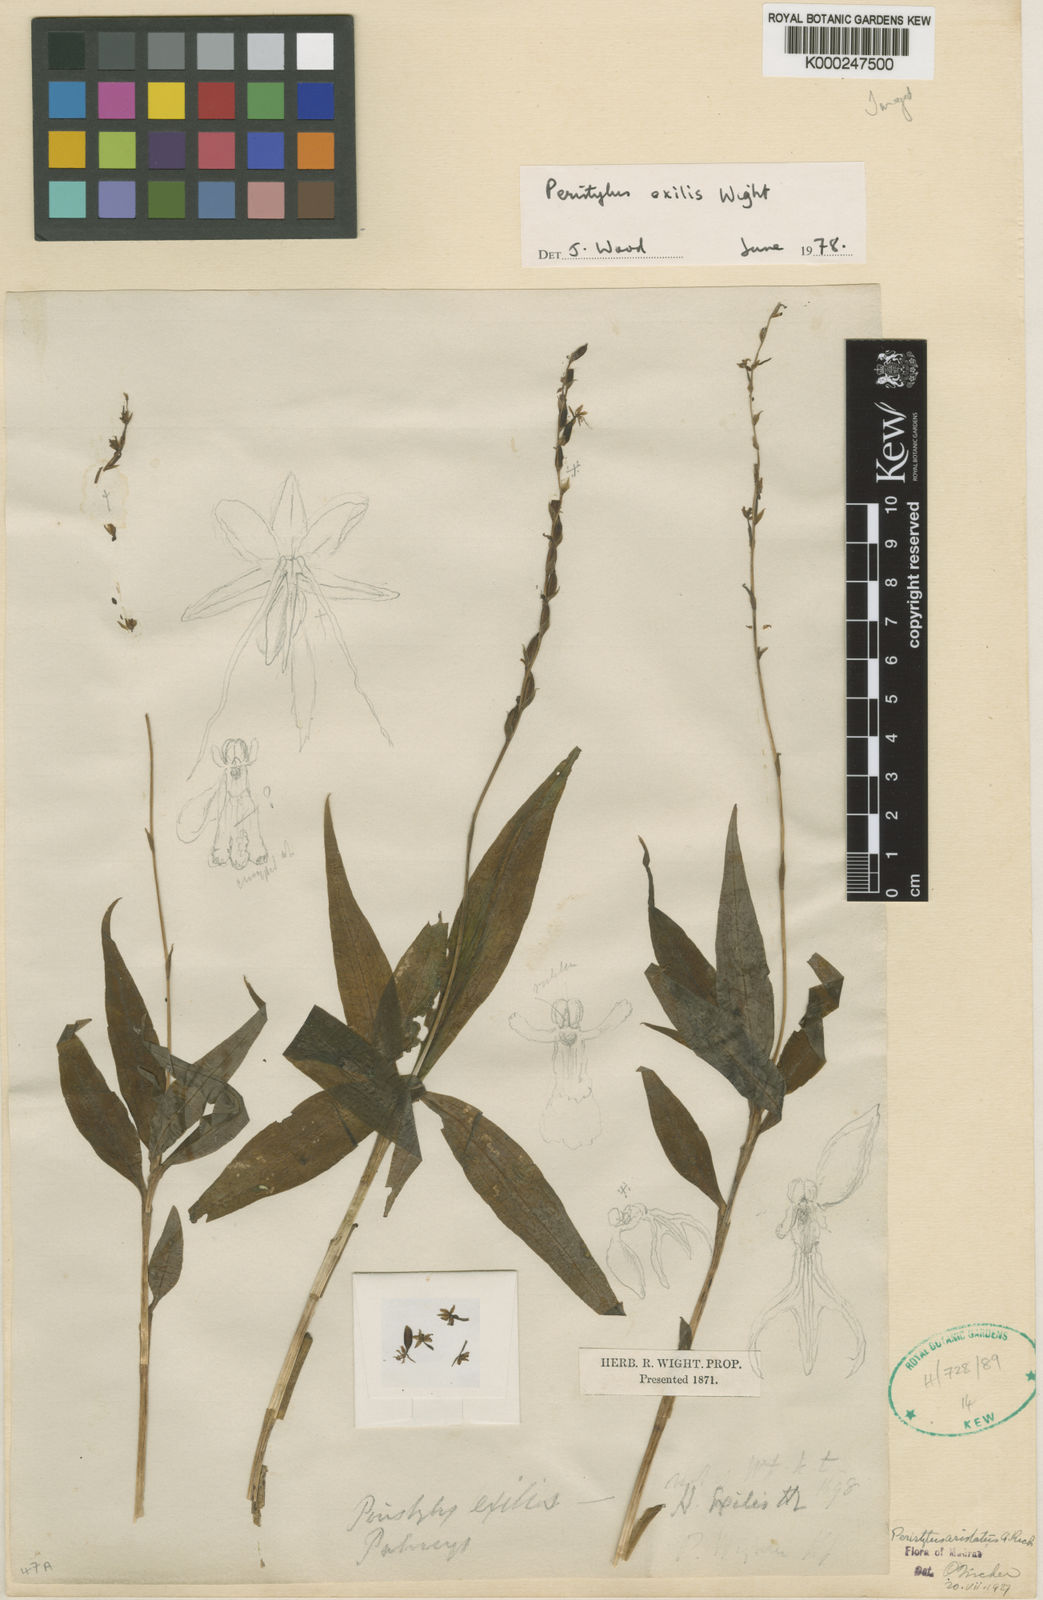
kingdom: Plantae
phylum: Tracheophyta
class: Liliopsida
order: Asparagales
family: Orchidaceae
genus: Peristylus
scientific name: Peristylus aristatus
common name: The spiked peristylus
